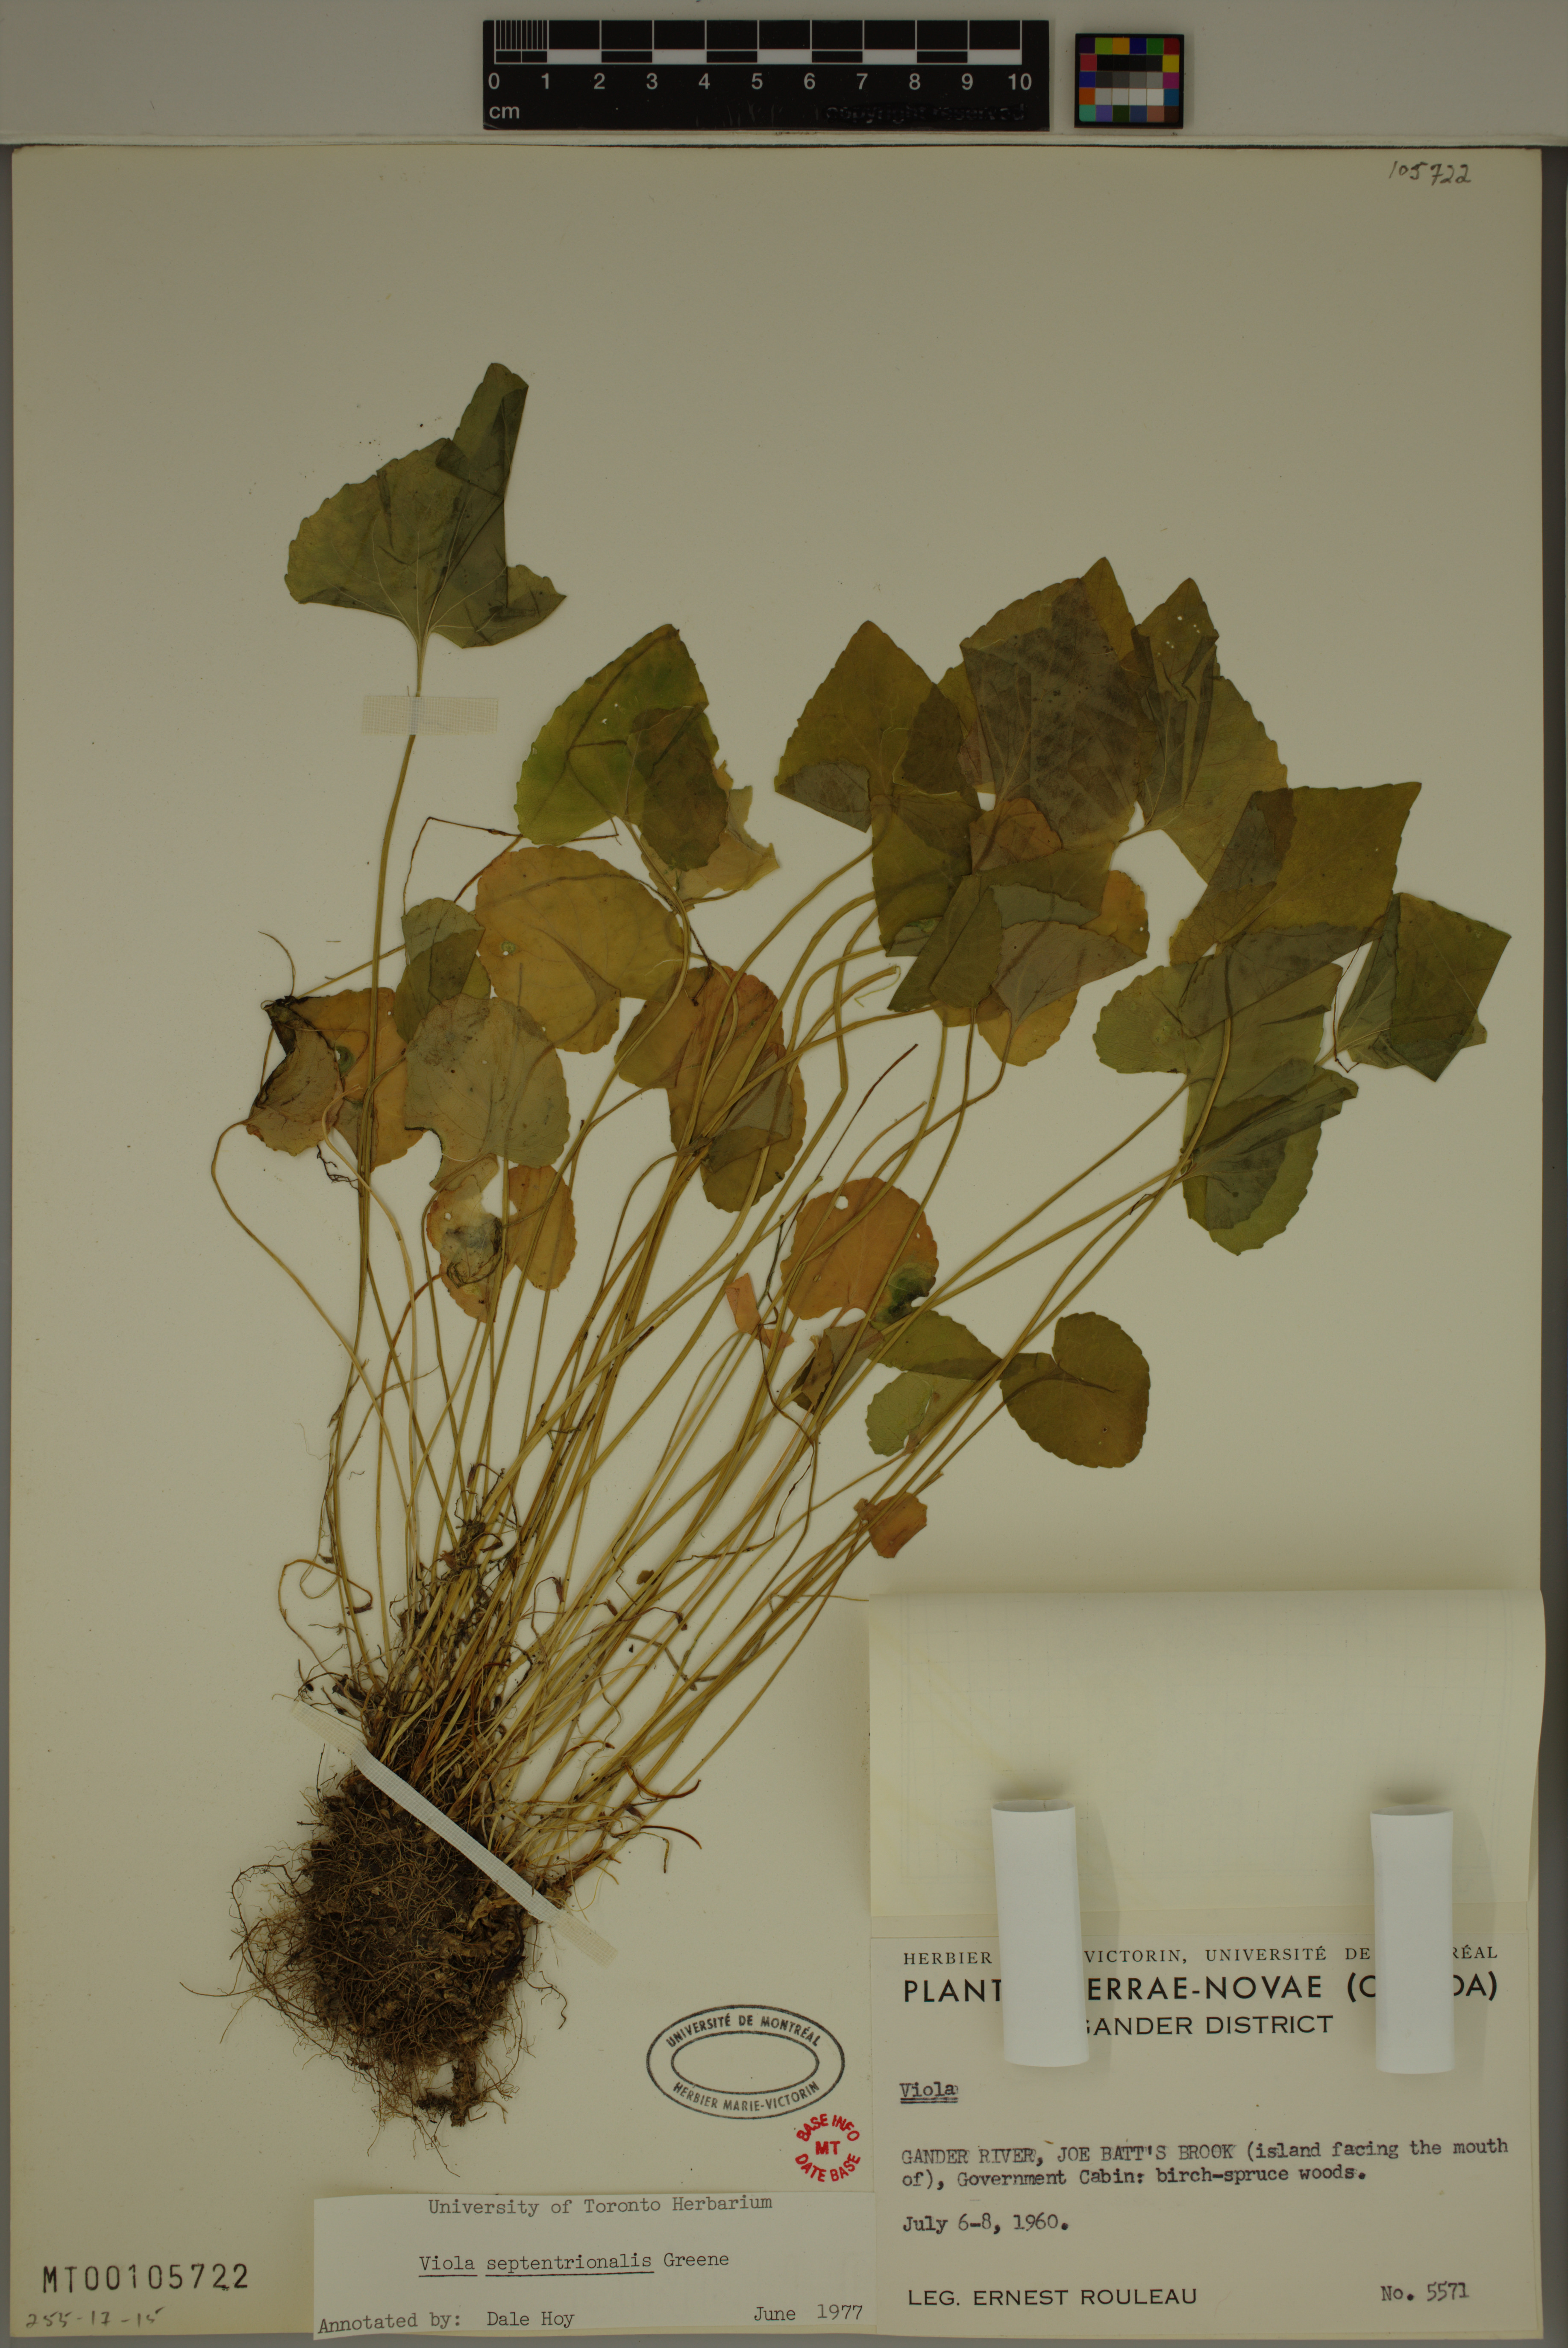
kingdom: Plantae
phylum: Tracheophyta
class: Magnoliopsida
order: Malpighiales
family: Violaceae
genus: Viola
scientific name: Viola sororia
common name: Dooryard violet
